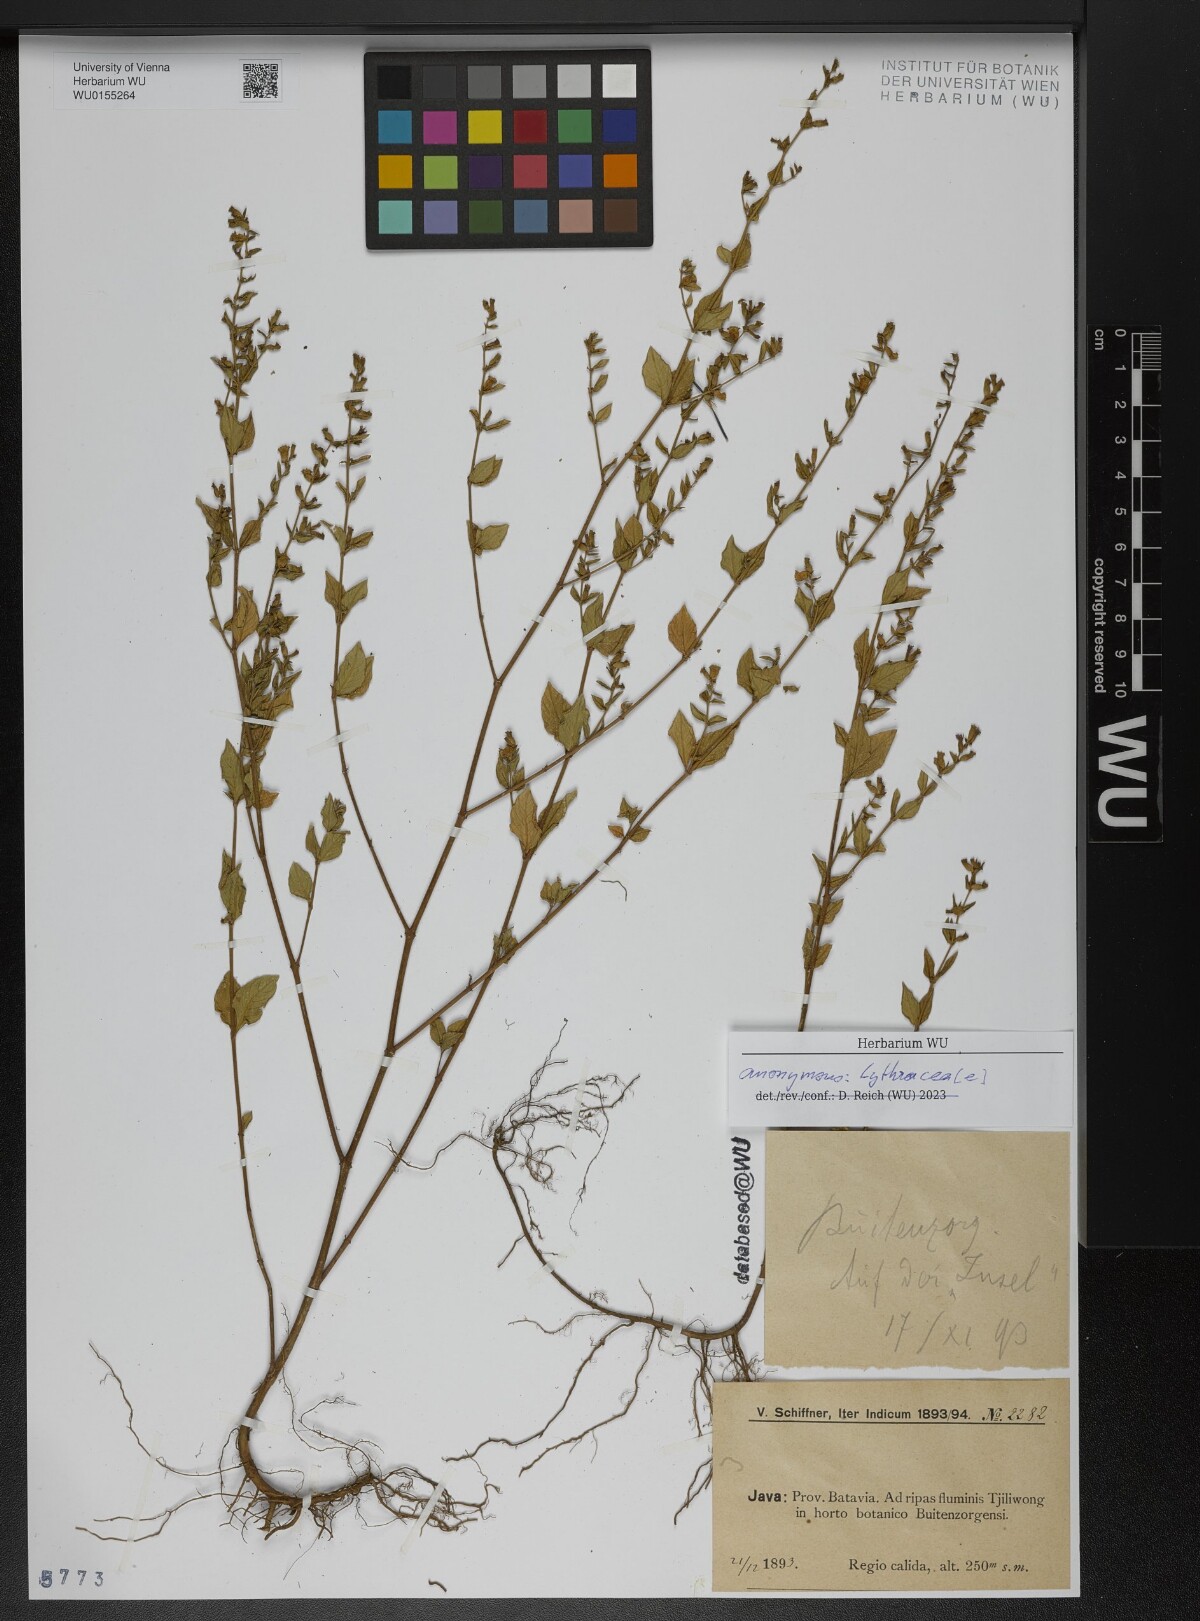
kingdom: Plantae
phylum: Tracheophyta
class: Magnoliopsida
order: Myrtales
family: Lythraceae
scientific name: Lythraceae
